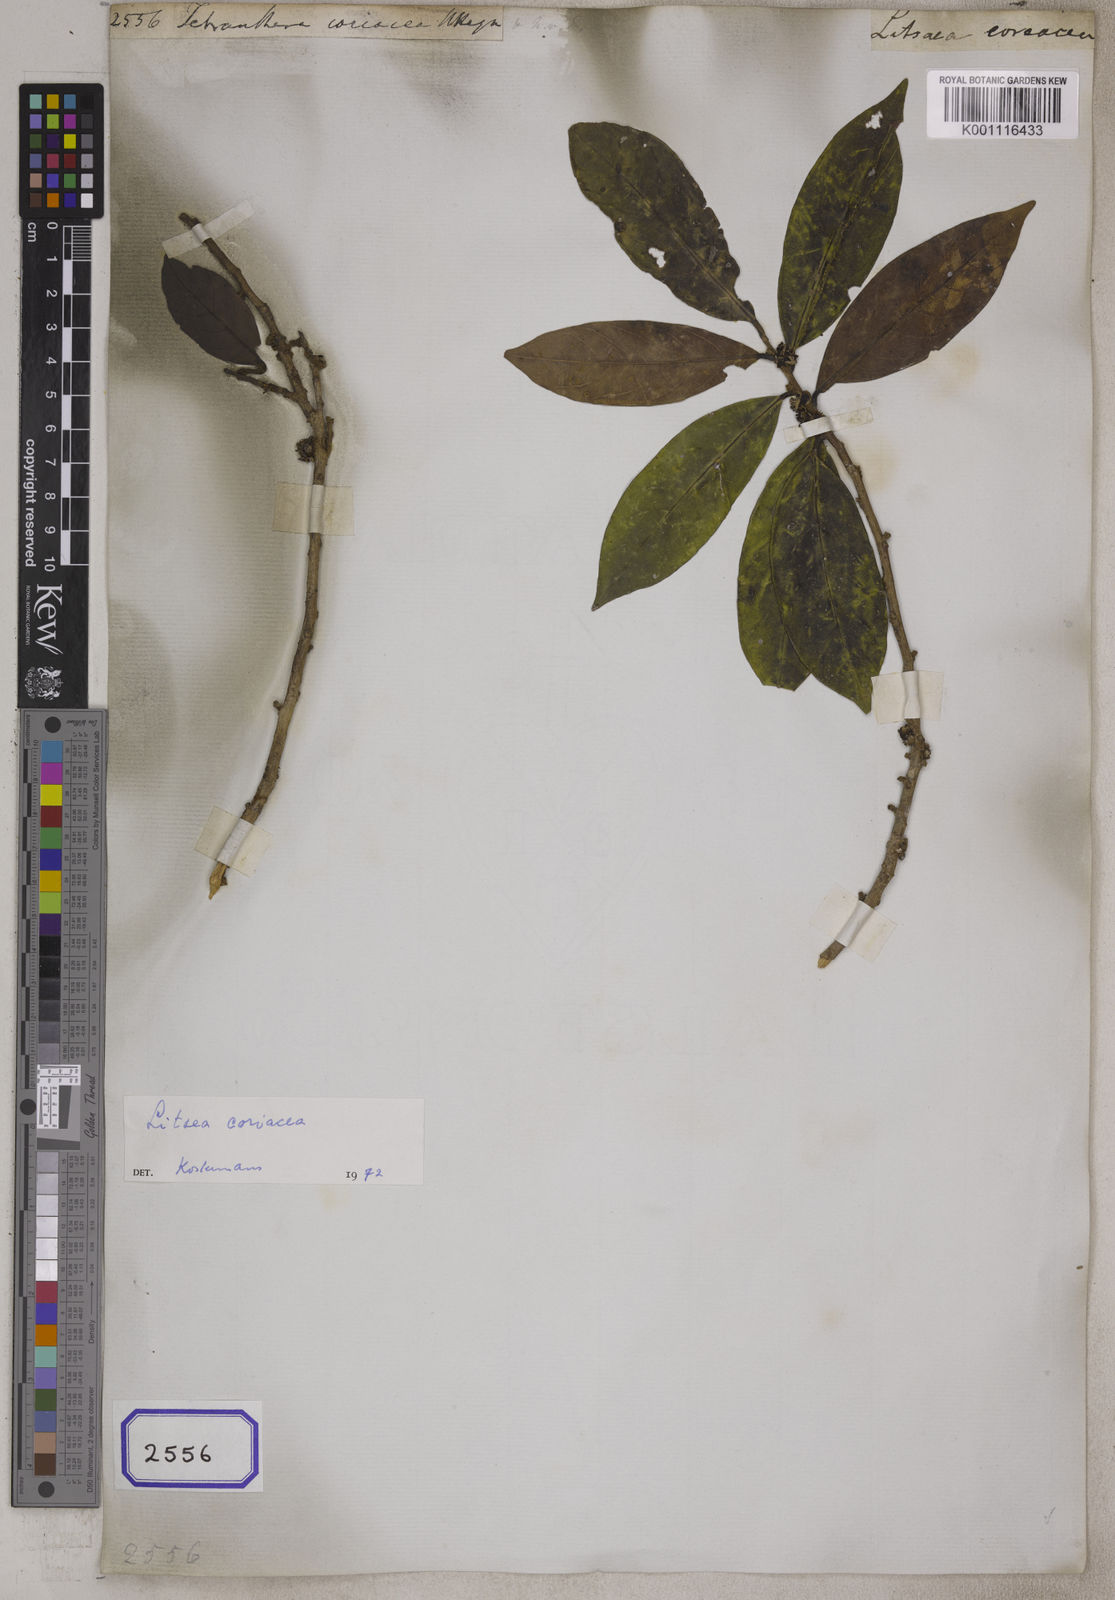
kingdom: Plantae
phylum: Tracheophyta
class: Magnoliopsida
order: Laurales
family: Lauraceae
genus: Litsea
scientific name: Litsea
